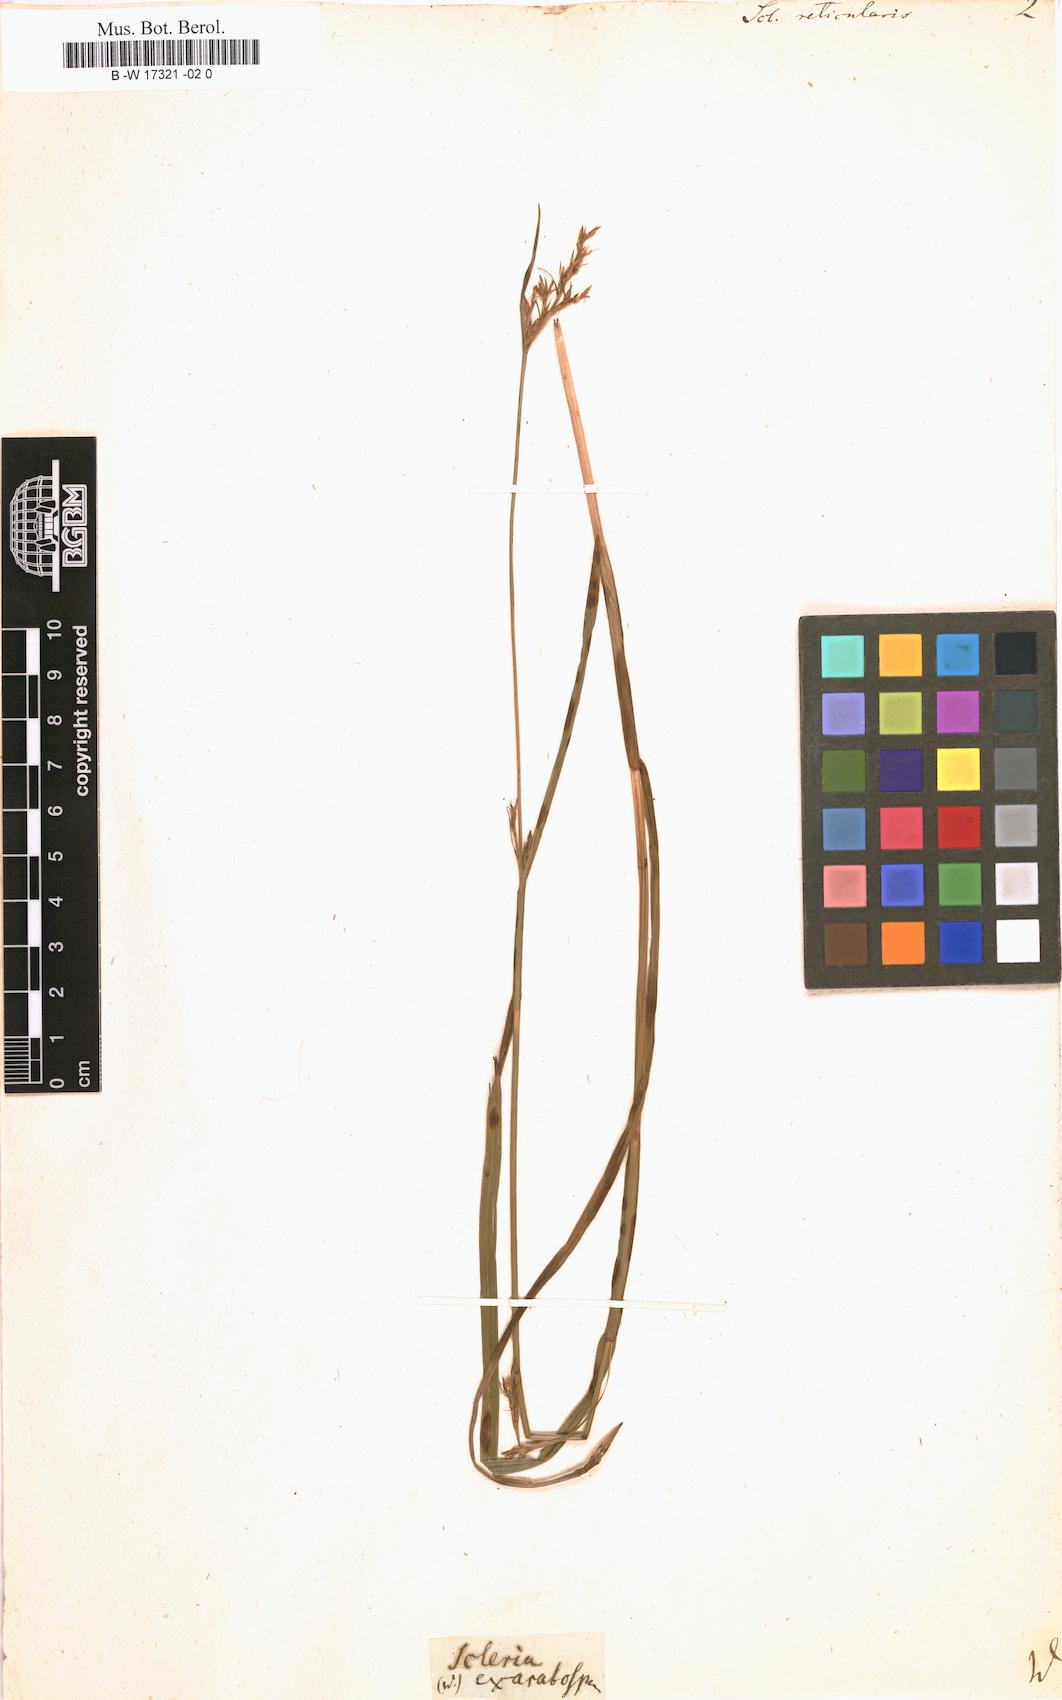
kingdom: Plantae
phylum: Tracheophyta
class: Liliopsida
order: Poales
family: Cyperaceae
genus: Scleria
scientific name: Scleria reticularis
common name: Netted nutrush
